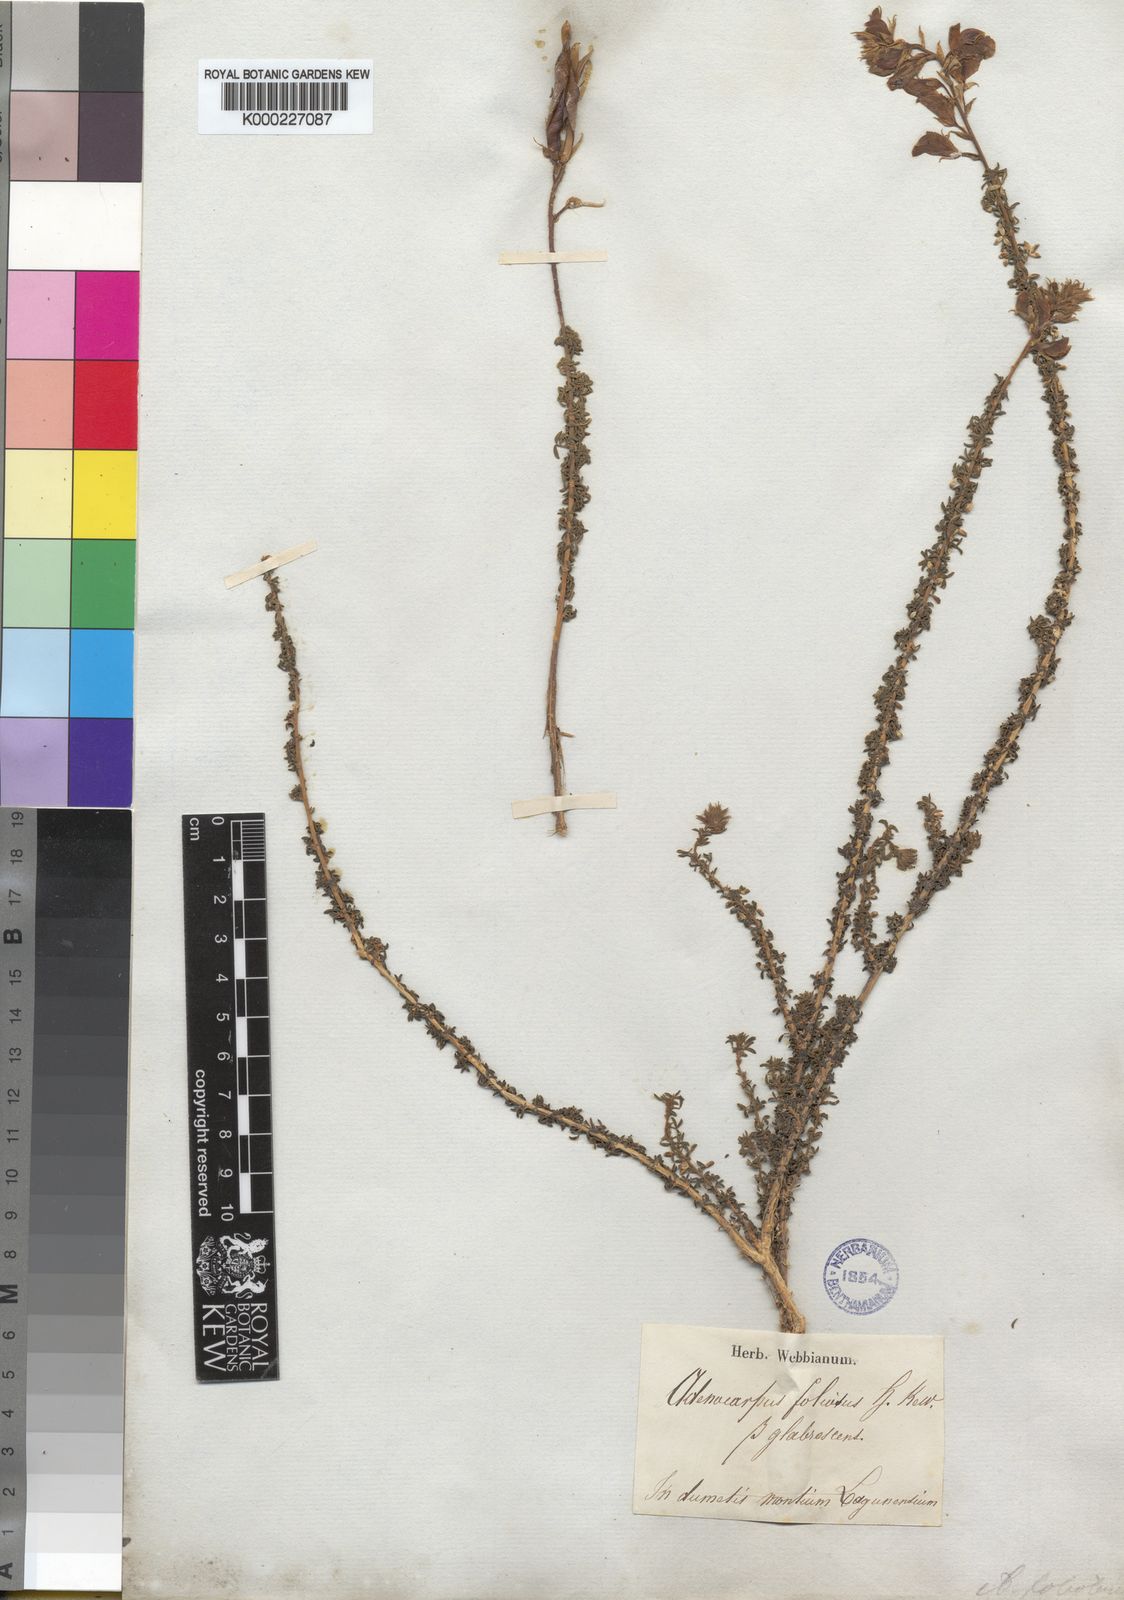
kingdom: Plantae
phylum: Tracheophyta
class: Magnoliopsida
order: Fabales
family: Fabaceae
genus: Adenocarpus
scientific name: Adenocarpus foliolosus
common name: Canary island flatpod
